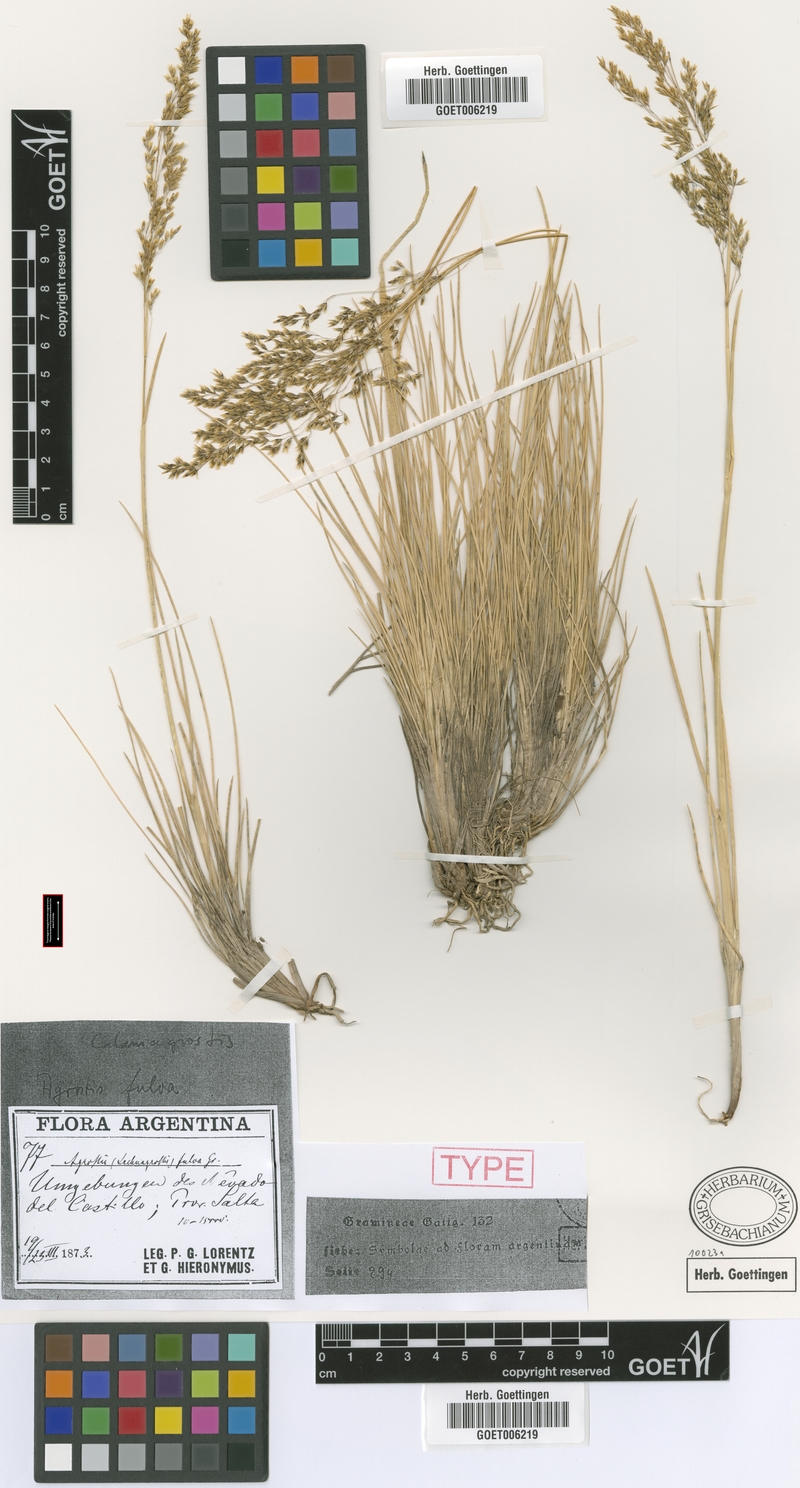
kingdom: Plantae
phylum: Tracheophyta
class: Liliopsida
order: Poales
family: Poaceae
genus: Deschampsia
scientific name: Deschampsia eminens
